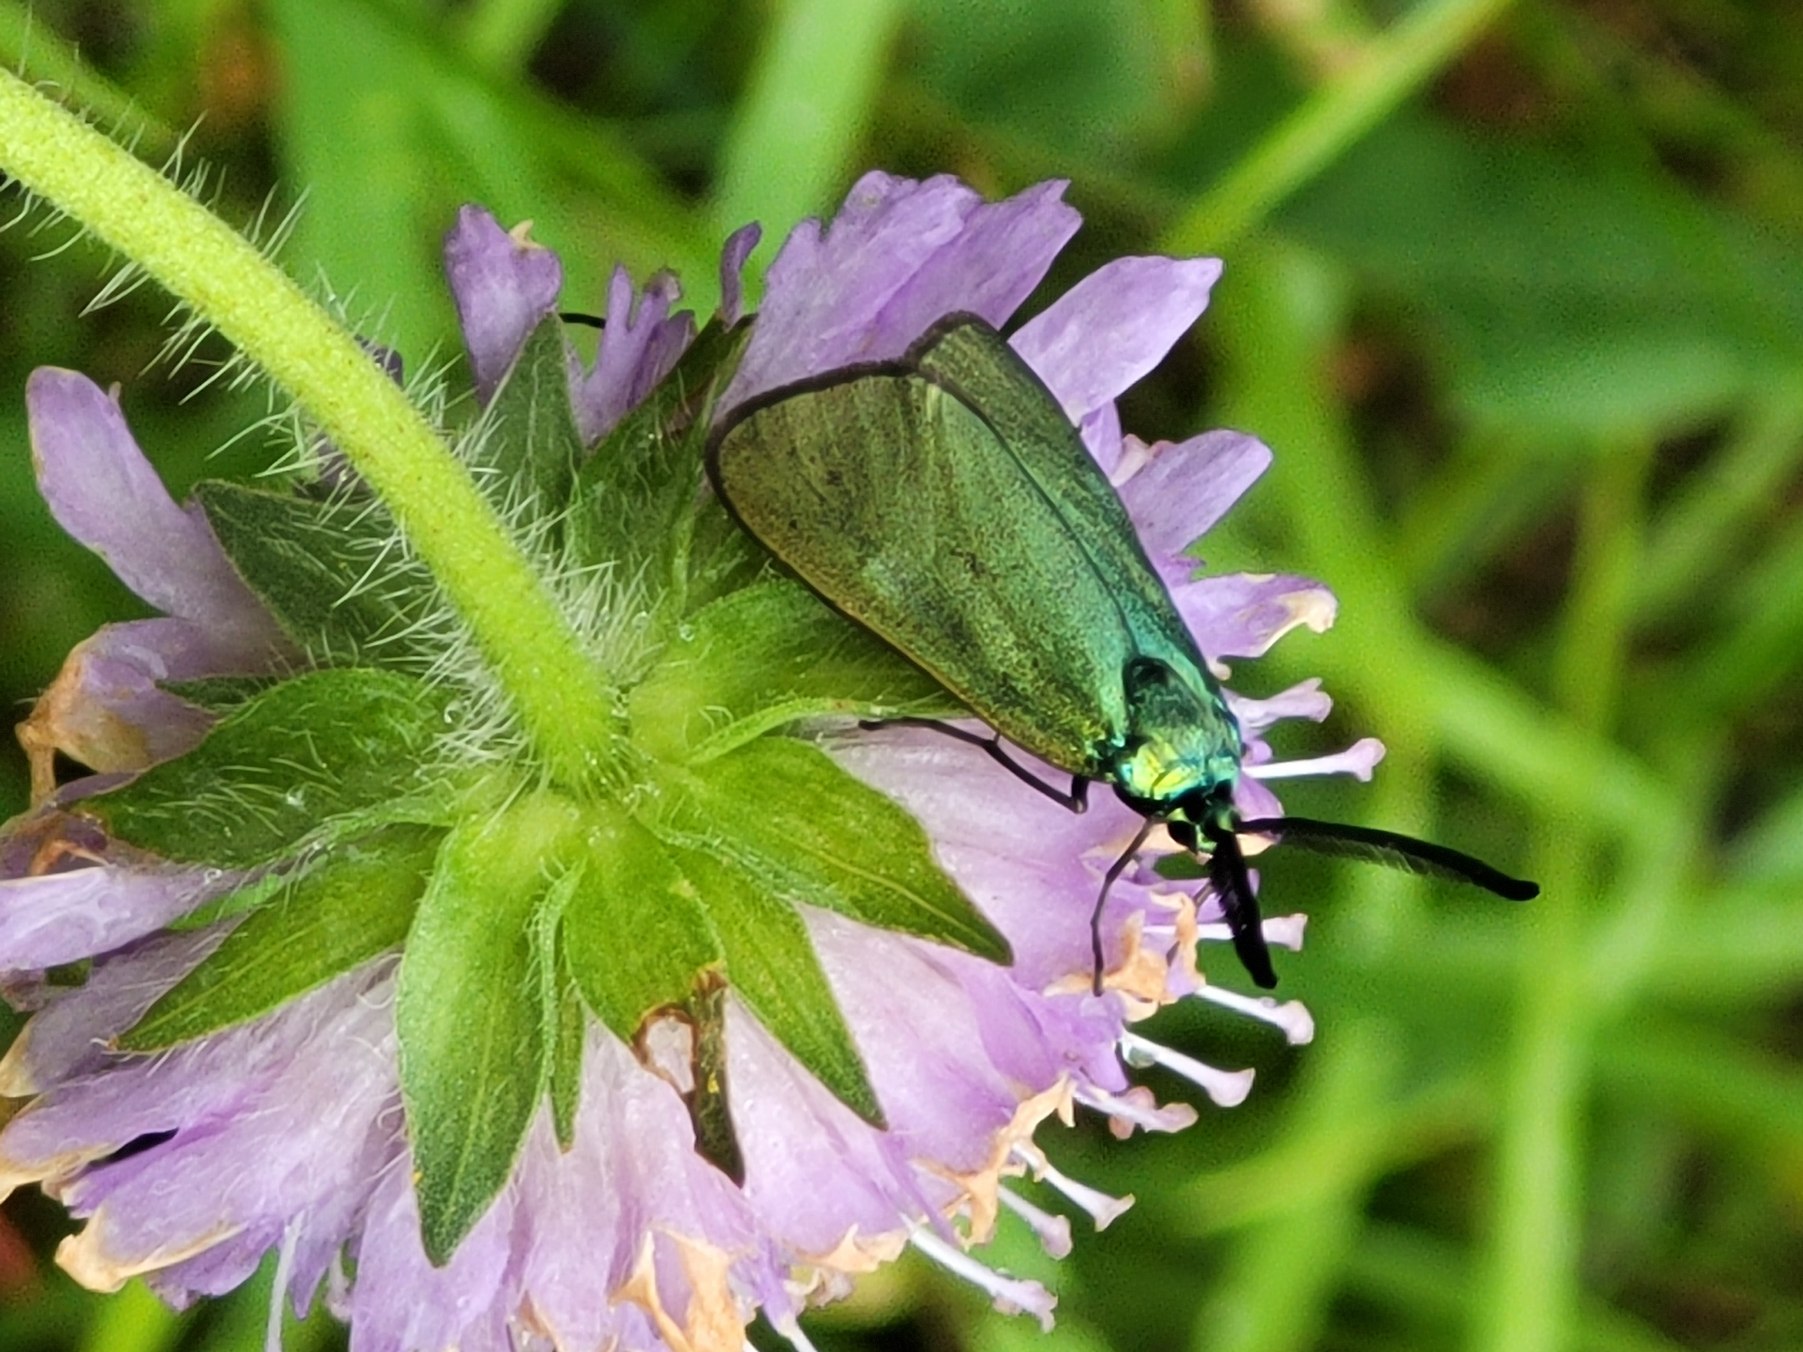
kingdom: Animalia
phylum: Arthropoda
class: Insecta
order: Lepidoptera
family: Zygaenidae
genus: Adscita
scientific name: Adscita statices
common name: Metalvinge
